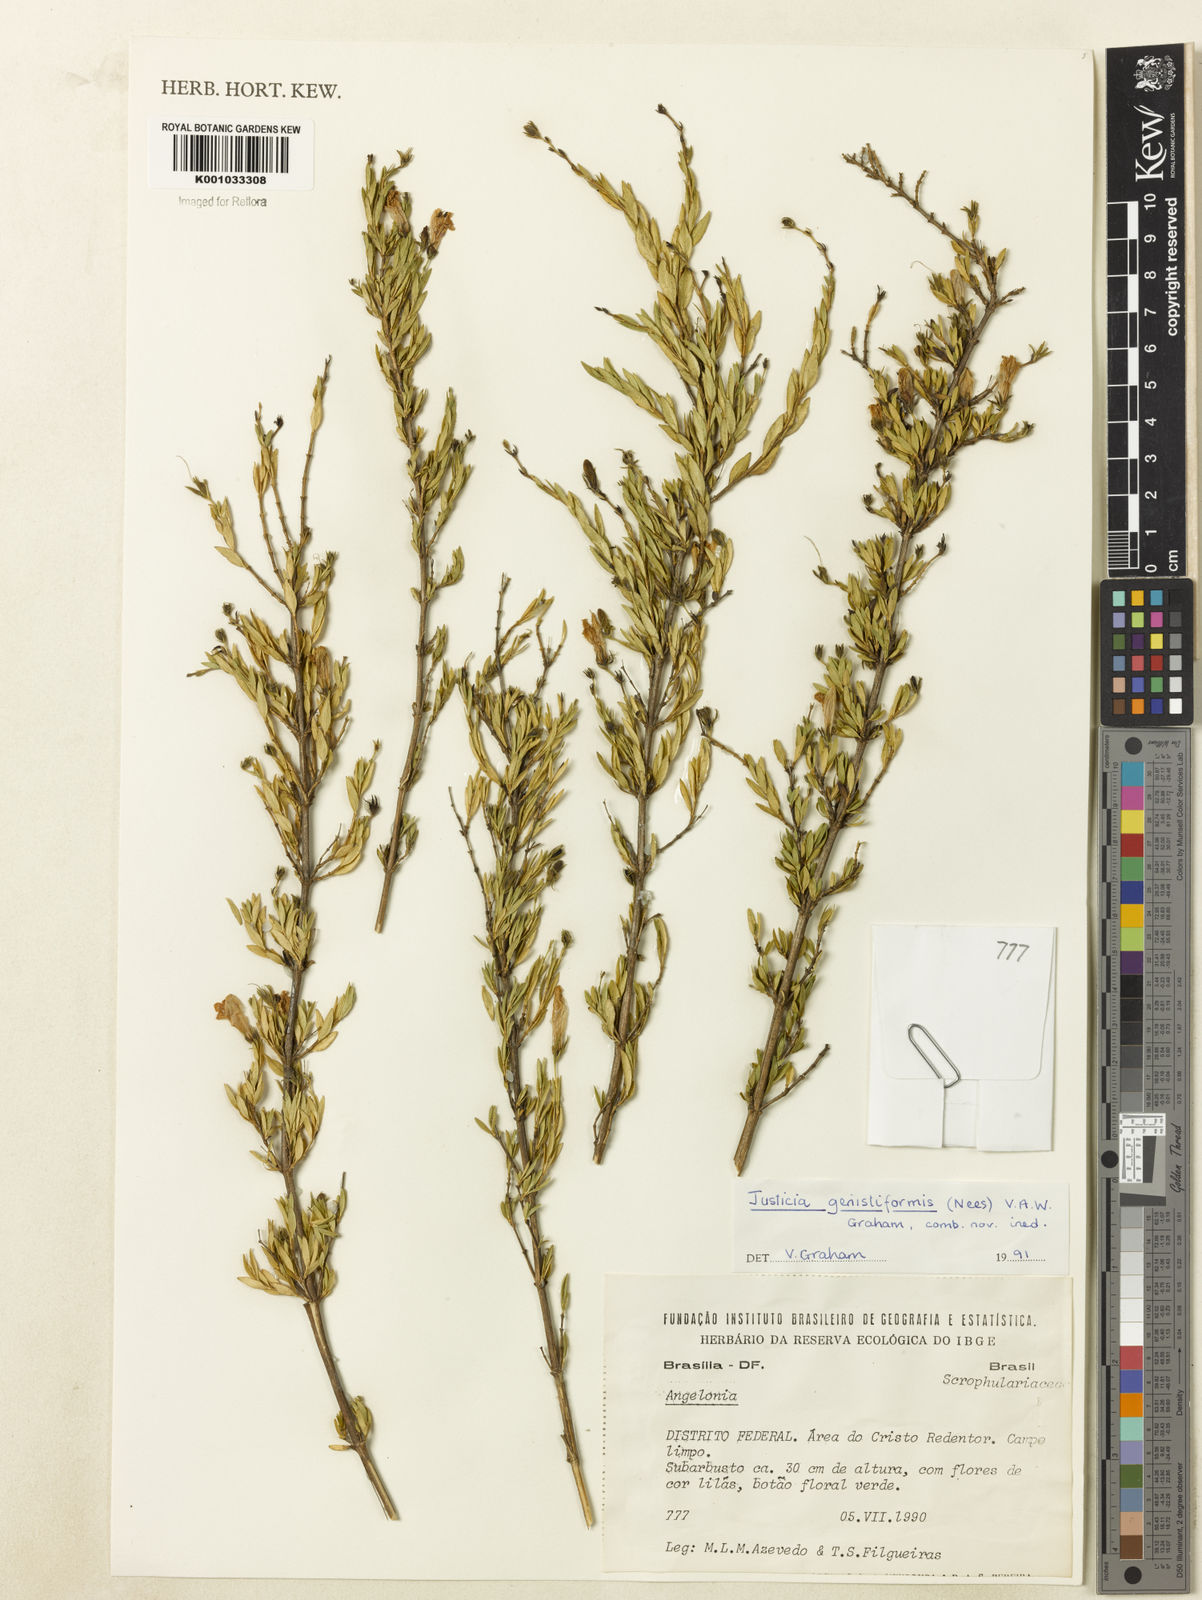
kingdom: Plantae
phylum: Tracheophyta
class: Magnoliopsida
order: Lamiales
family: Acanthaceae
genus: Justicia
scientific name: Justicia
